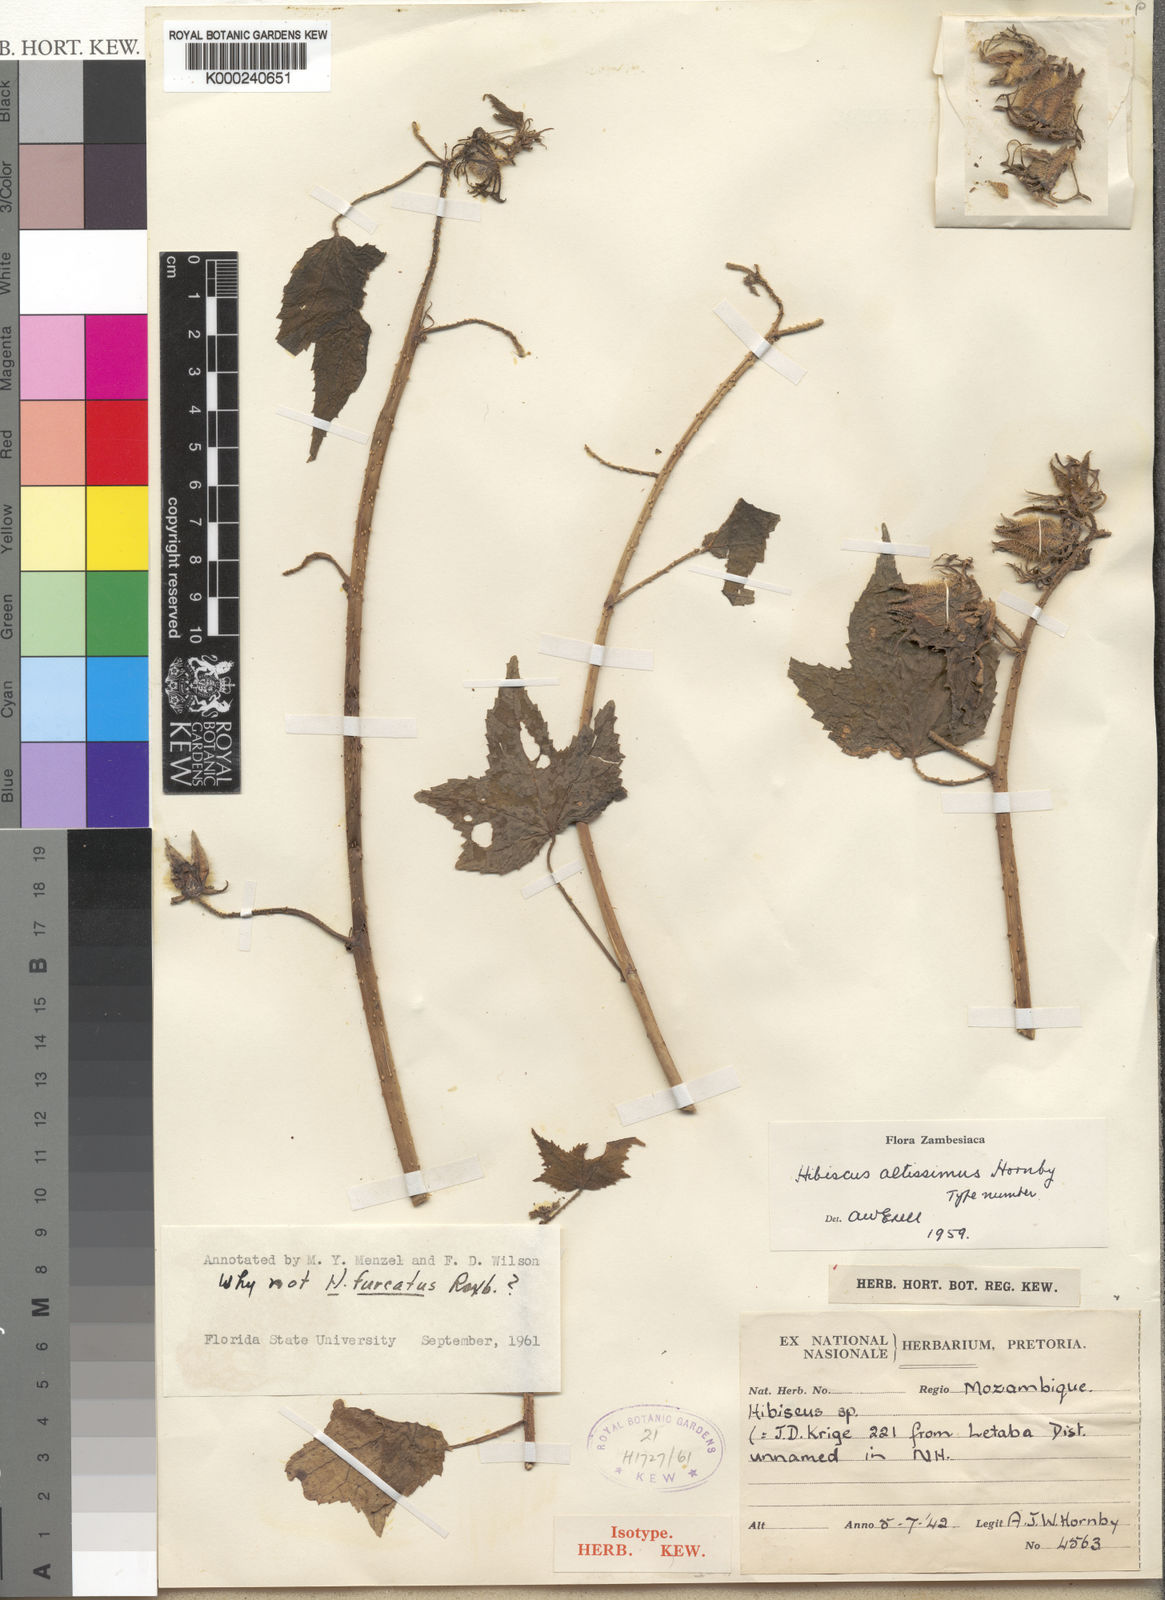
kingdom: Plantae
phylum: Tracheophyta
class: Magnoliopsida
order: Malvales
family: Malvaceae
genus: Hibiscus
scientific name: Hibiscus altissimus
